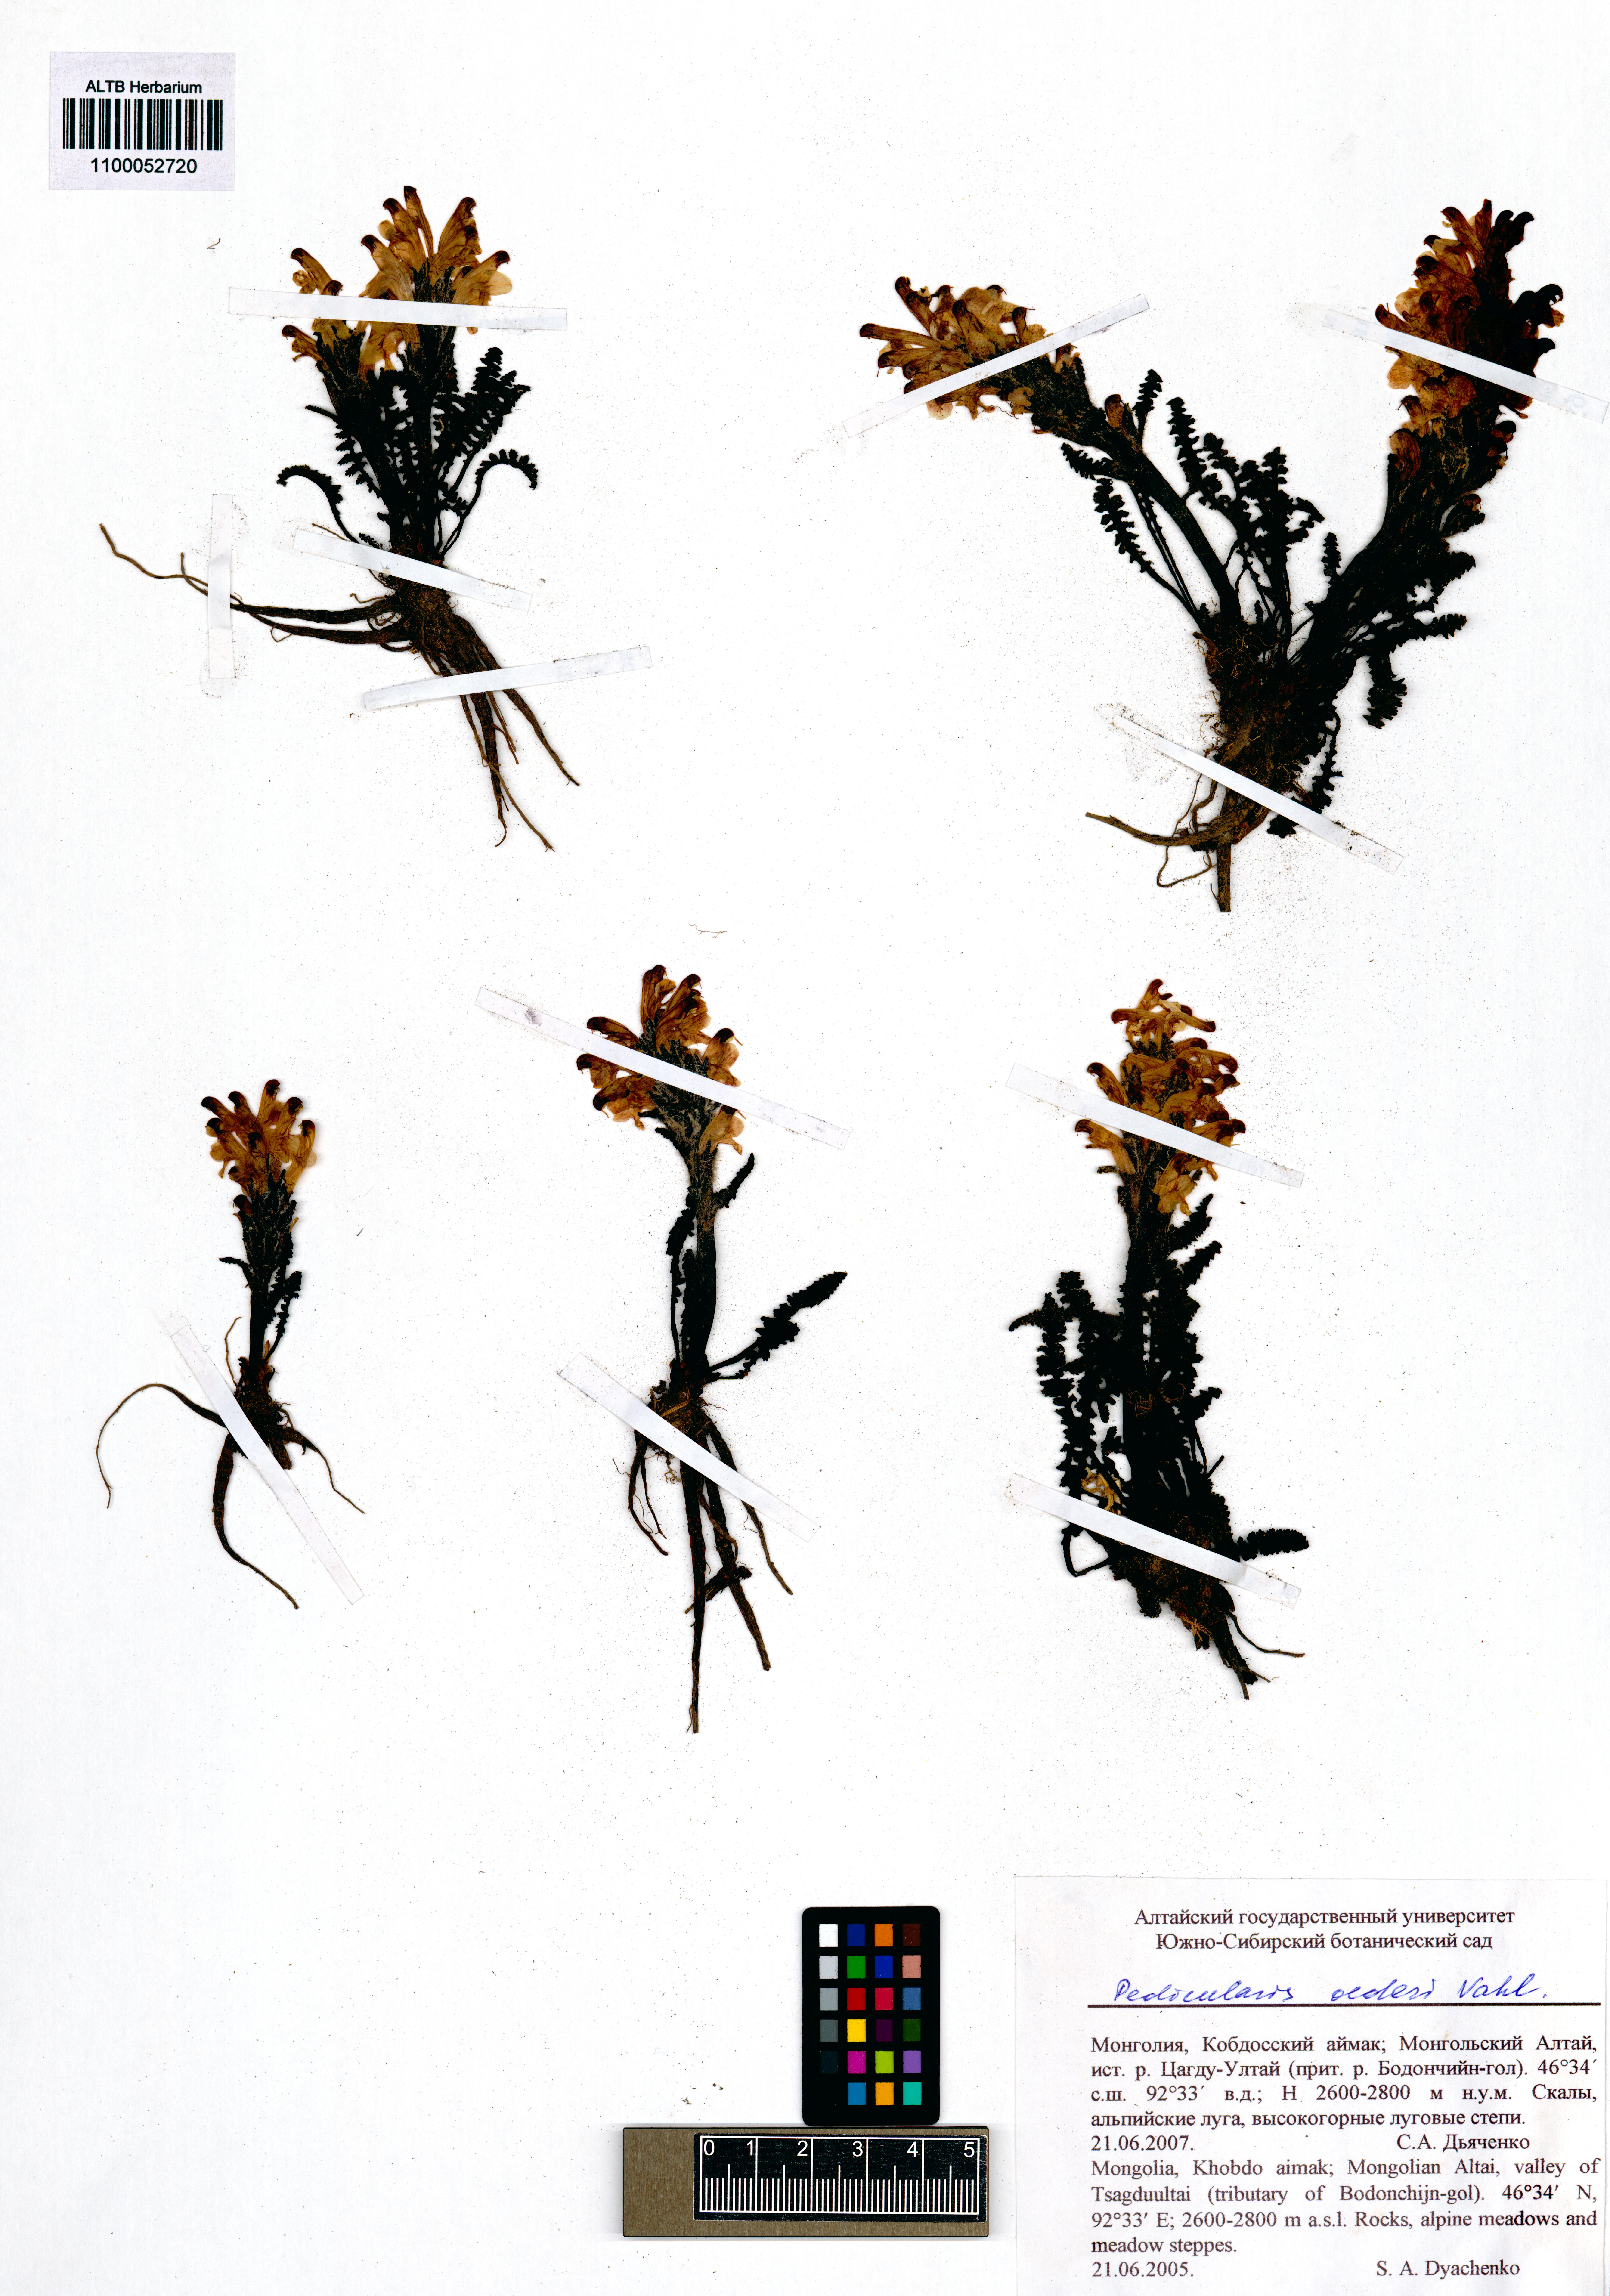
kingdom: Plantae
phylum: Tracheophyta
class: Magnoliopsida
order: Lamiales
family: Orobanchaceae
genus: Pedicularis
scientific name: Pedicularis oederi
